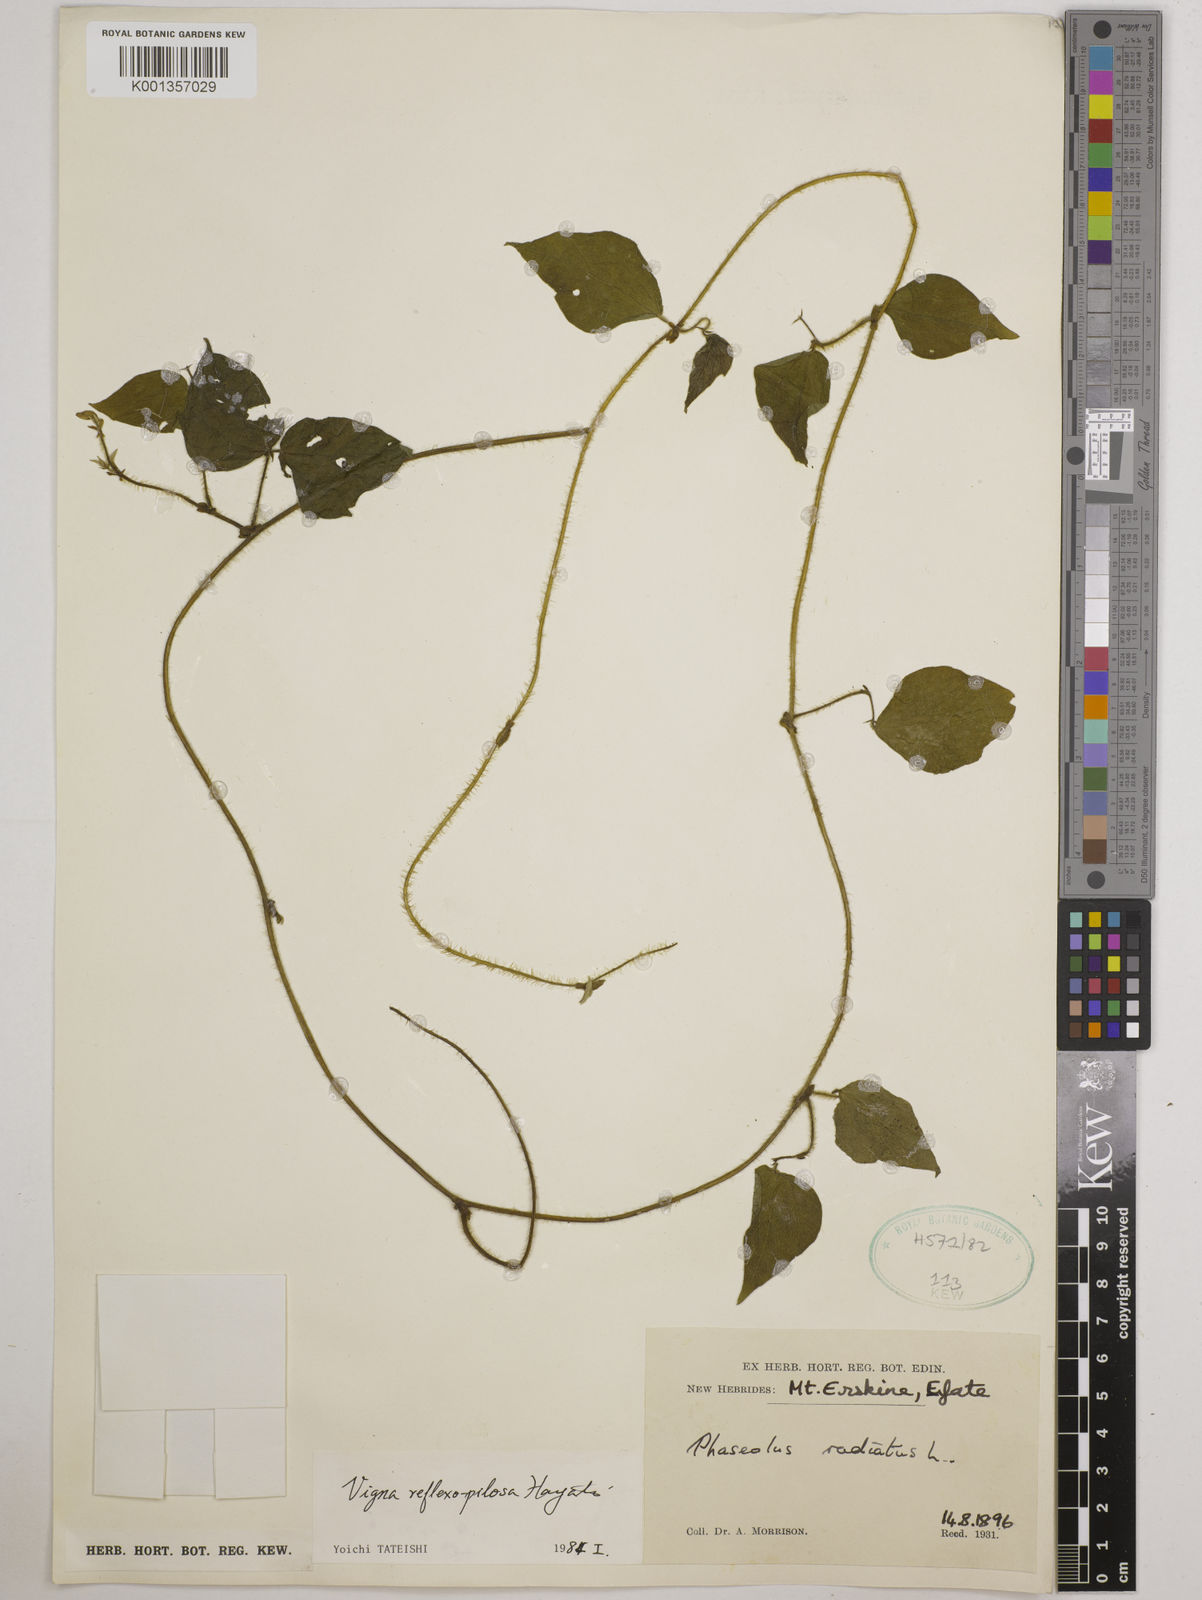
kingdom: Plantae
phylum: Tracheophyta
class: Magnoliopsida
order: Fabales
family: Fabaceae
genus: Vigna
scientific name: Vigna reflexopilosa
